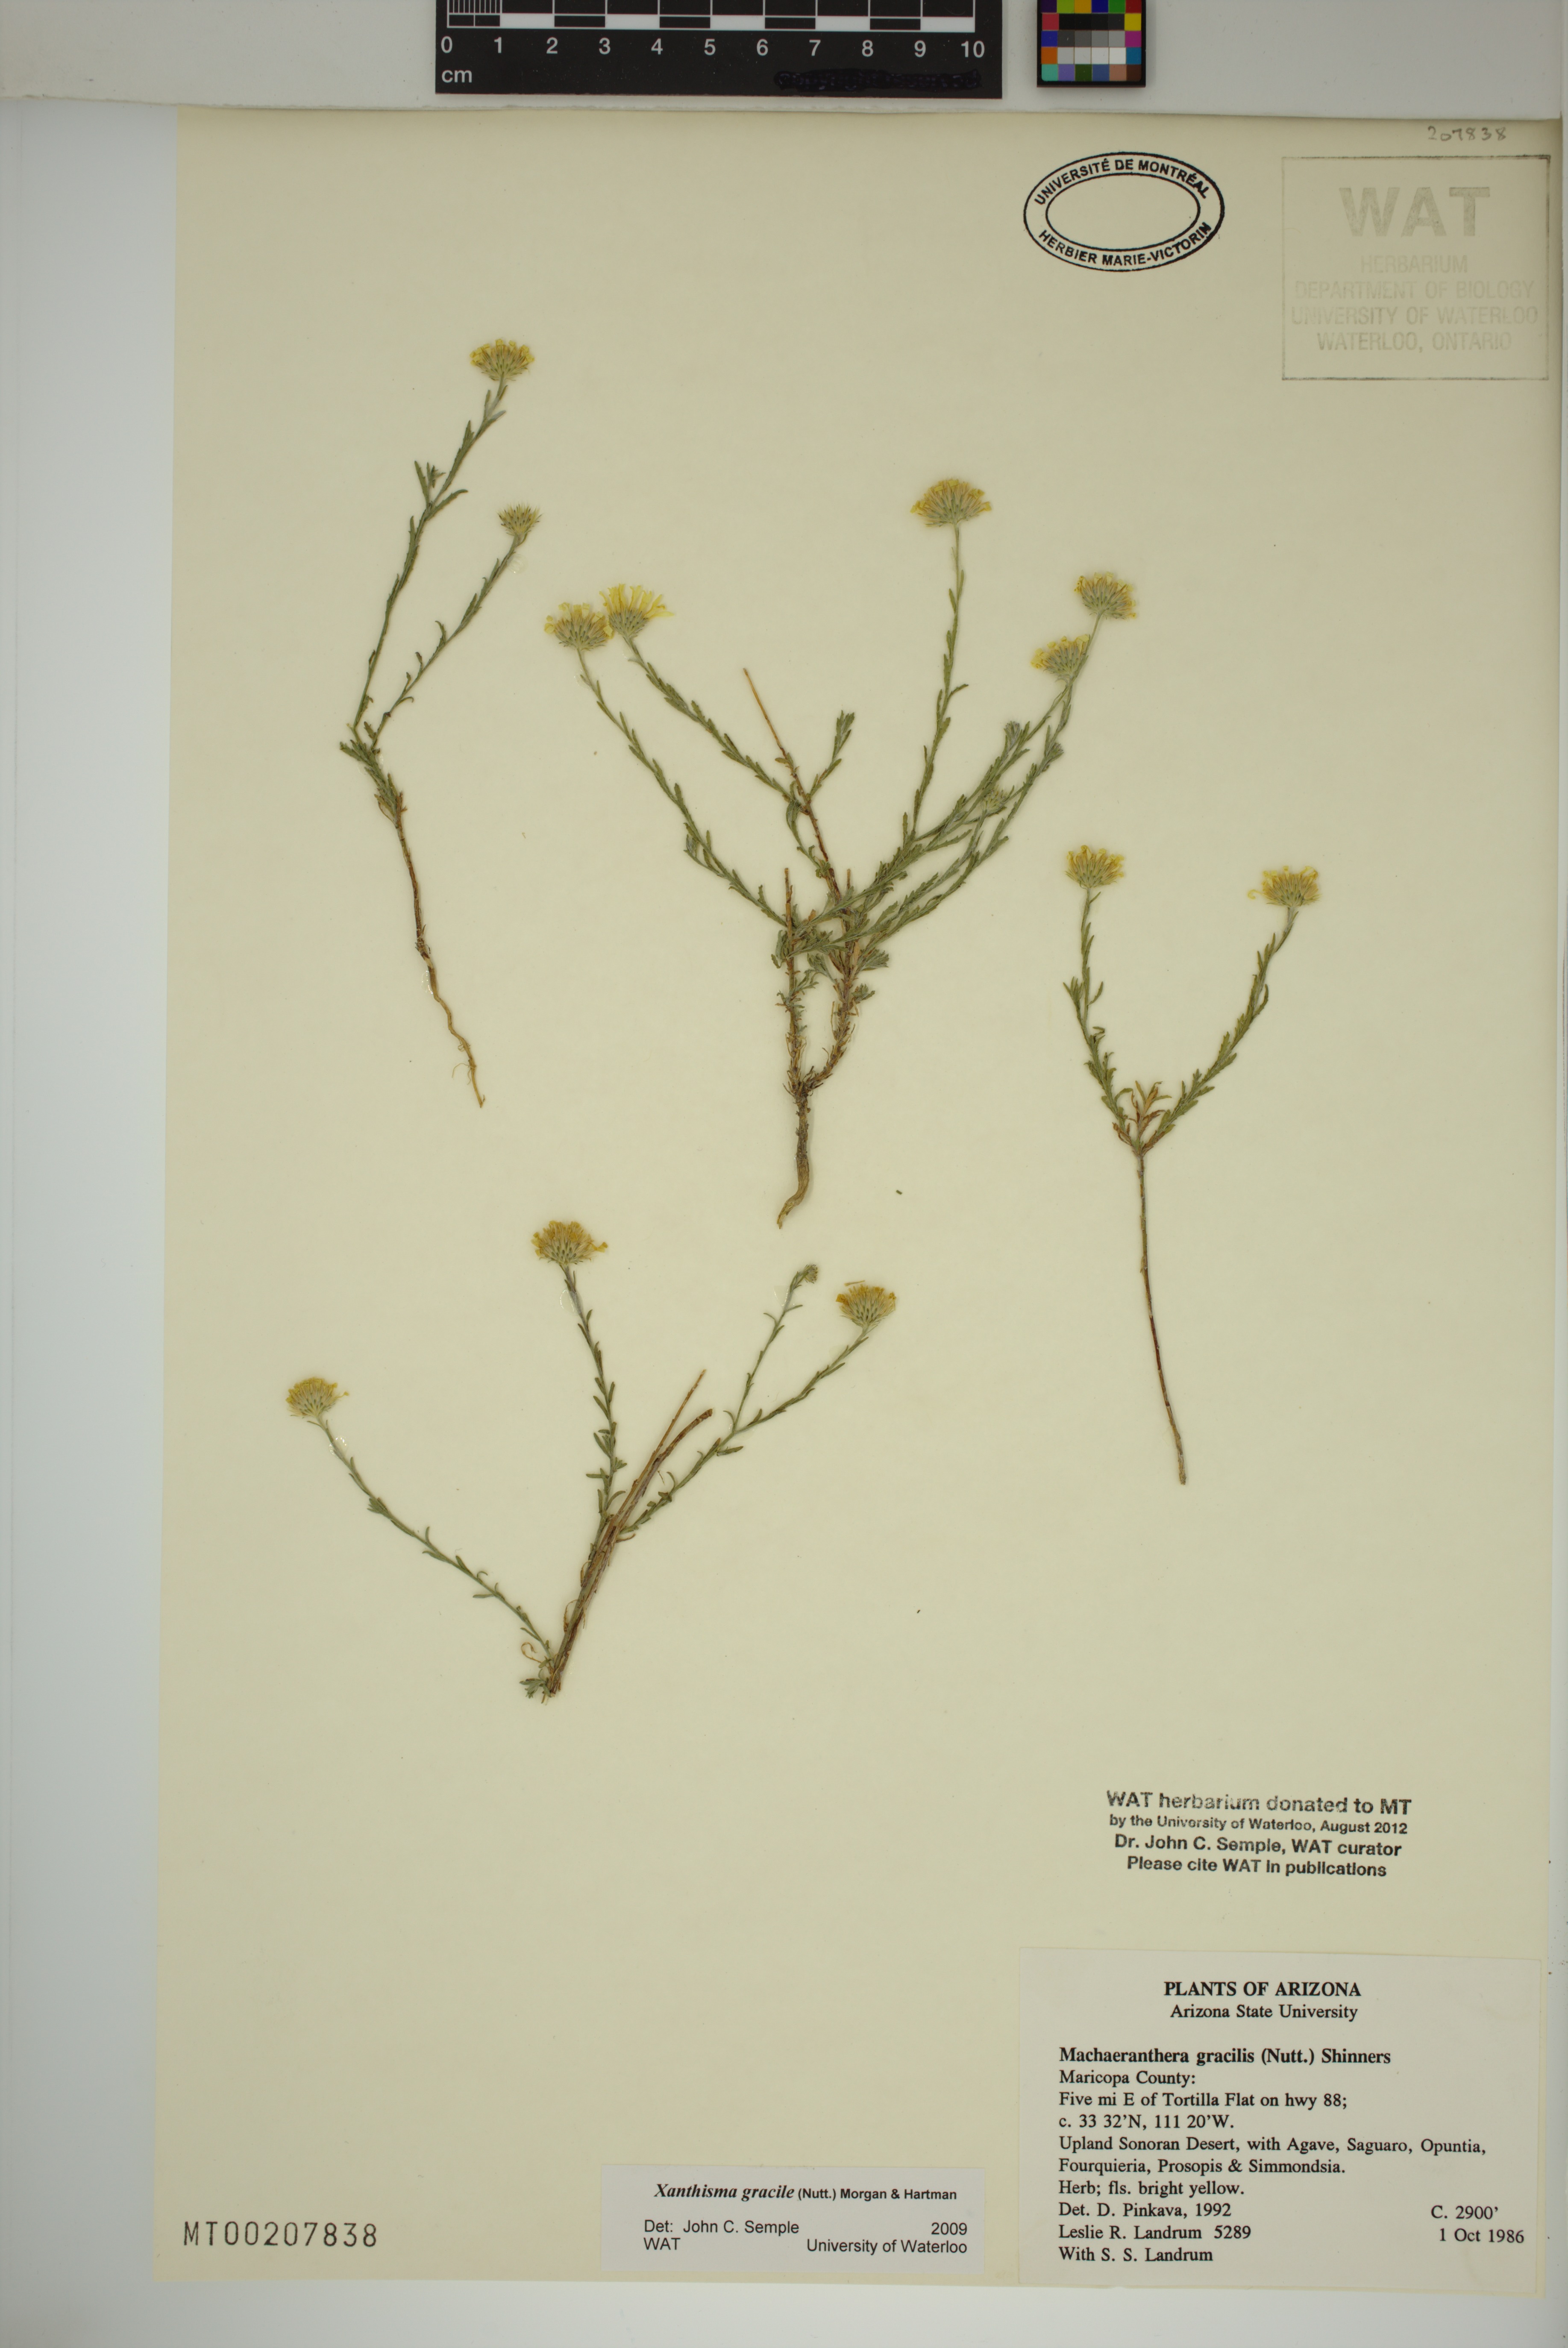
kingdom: Plantae
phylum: Tracheophyta
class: Magnoliopsida
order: Asterales
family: Asteraceae
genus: Xanthisma
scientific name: Xanthisma gracile
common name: Slender goldenweed
